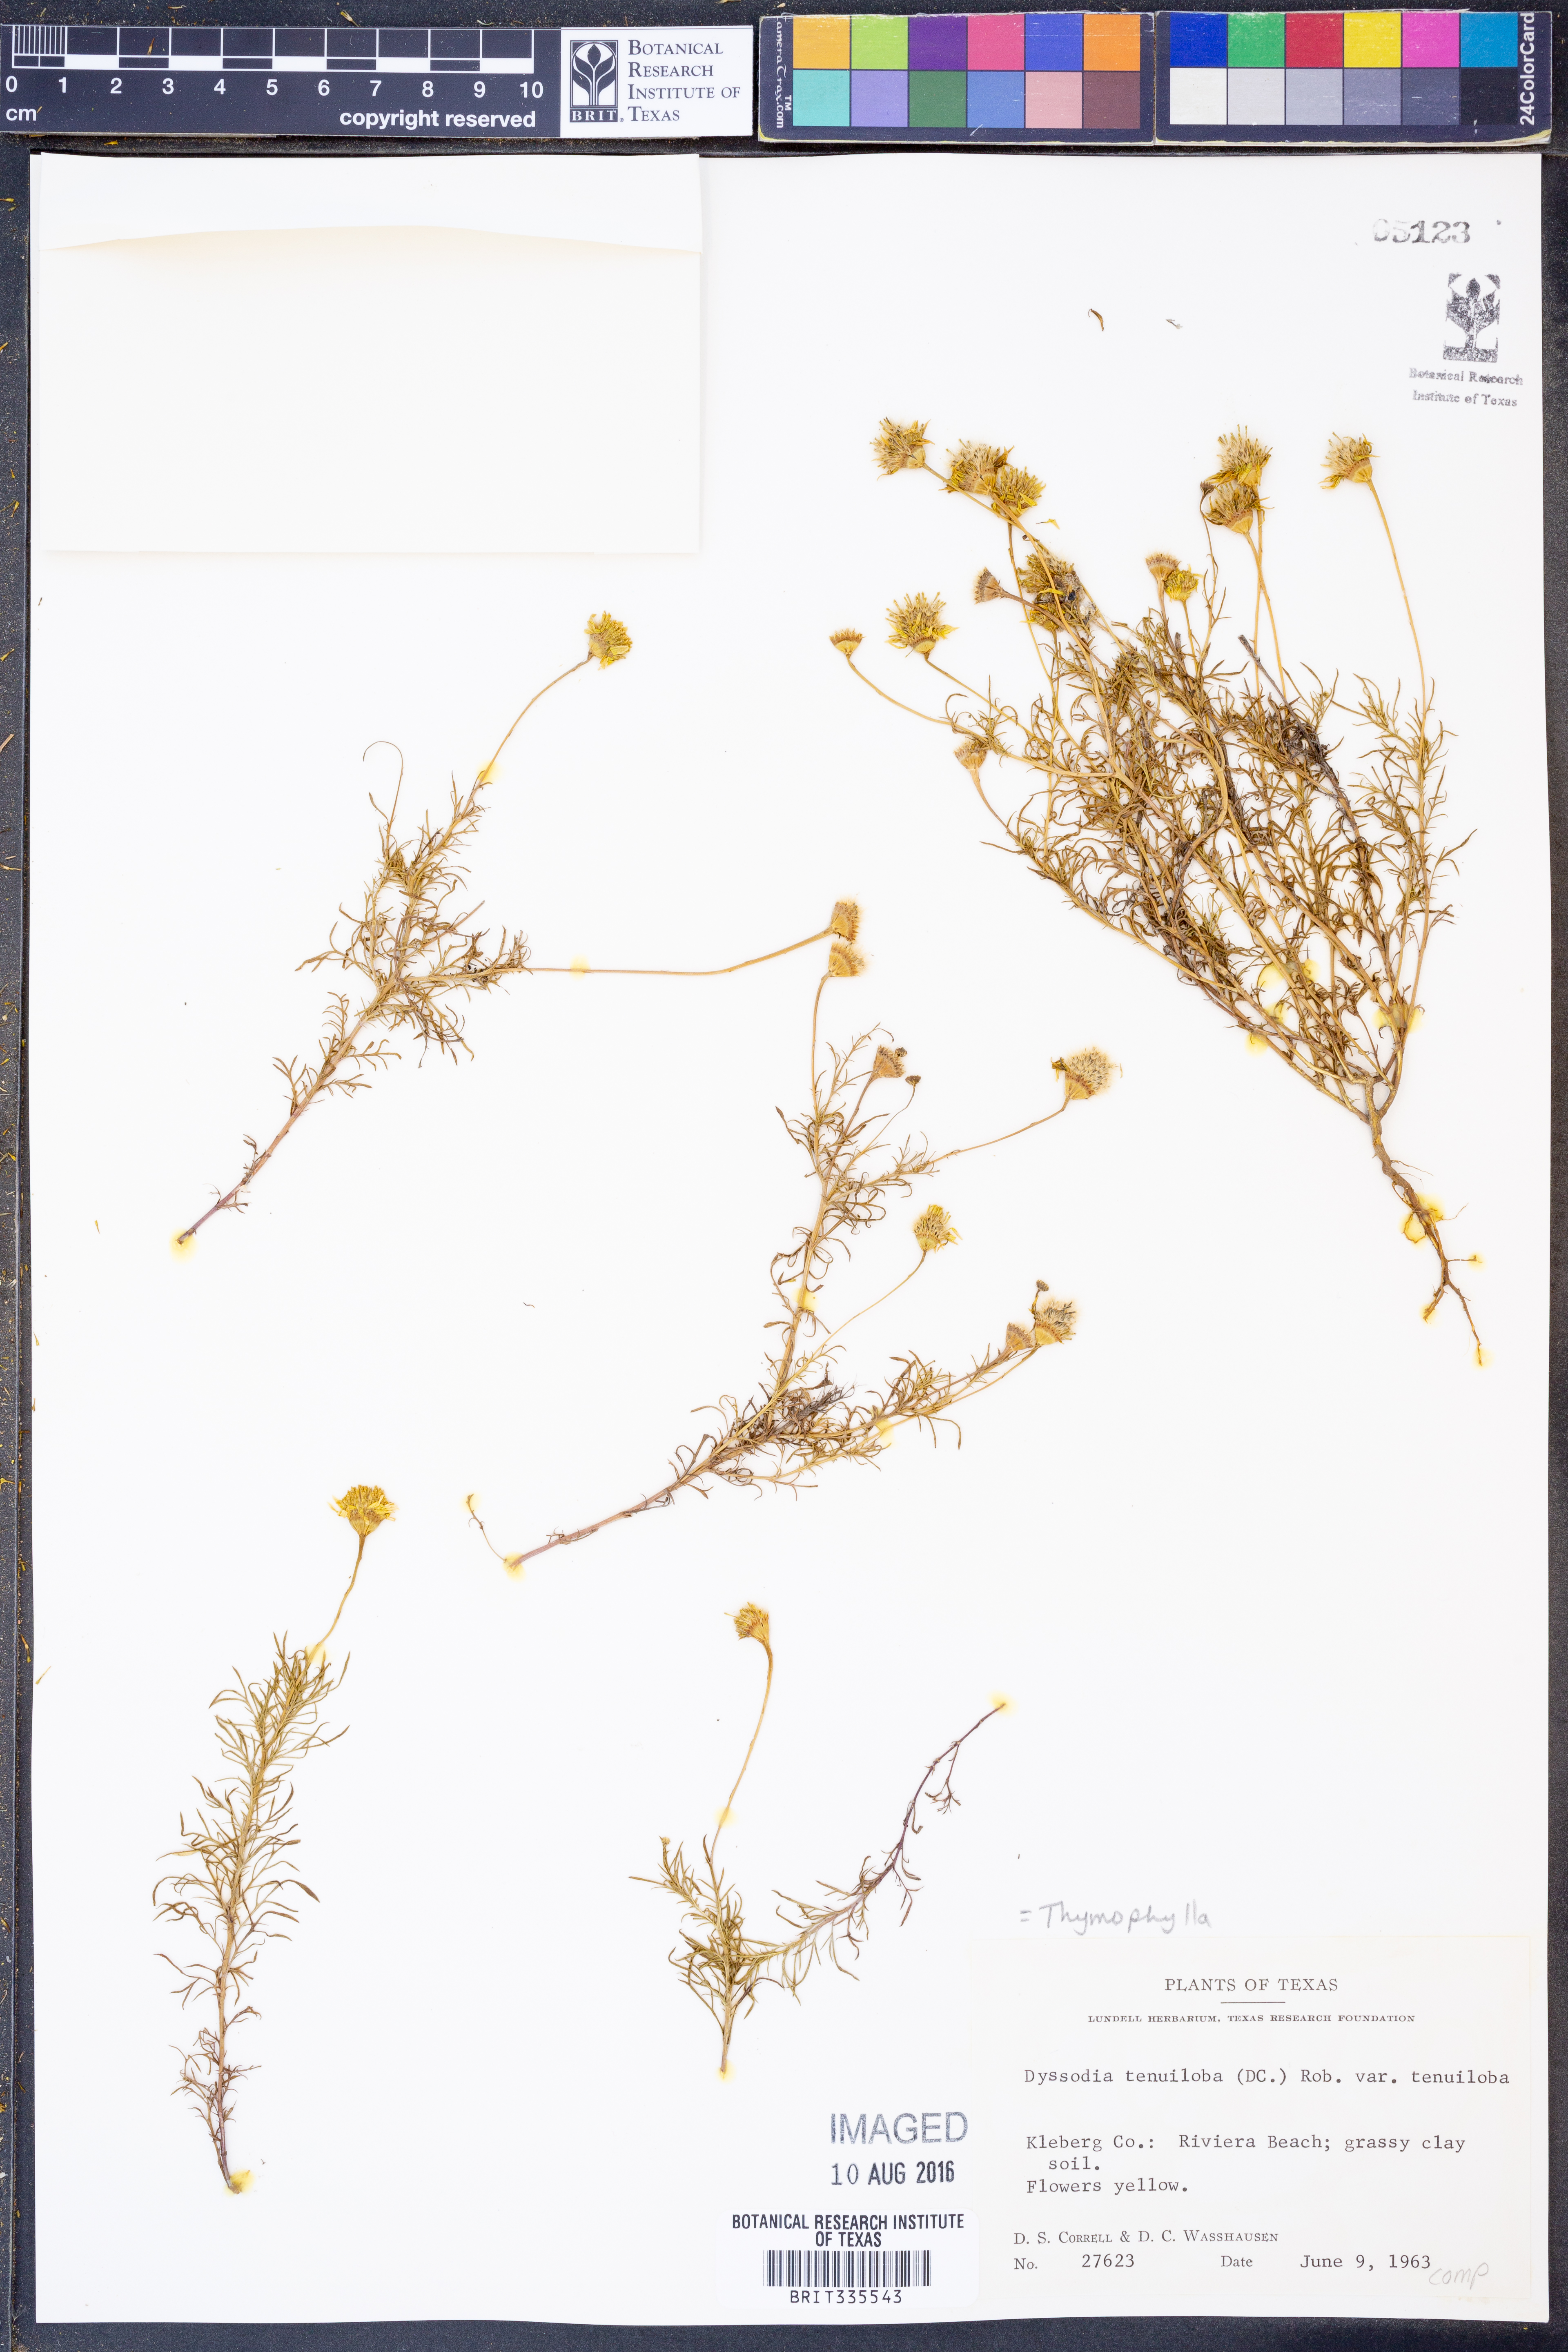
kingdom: Plantae
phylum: Tracheophyta
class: Magnoliopsida
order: Asterales
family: Asteraceae
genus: Thymophylla
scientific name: Thymophylla tenuiloba
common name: Dahlberg's daisy
